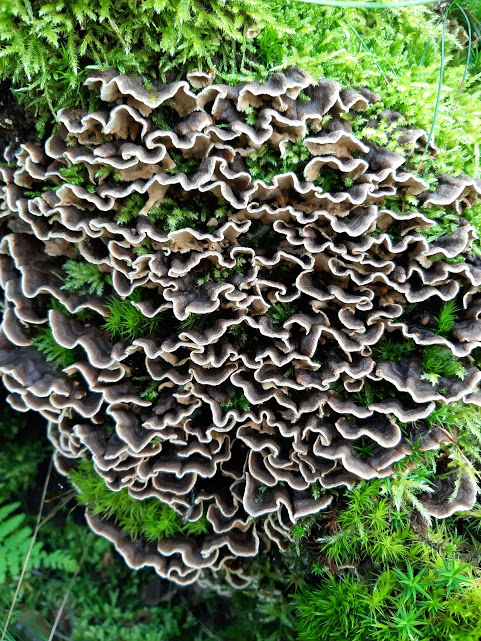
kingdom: Fungi
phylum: Basidiomycota
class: Agaricomycetes
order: Russulales
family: Hericiaceae
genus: Laxitextum
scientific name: Laxitextum bicolor
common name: tvefarvet filtskind
